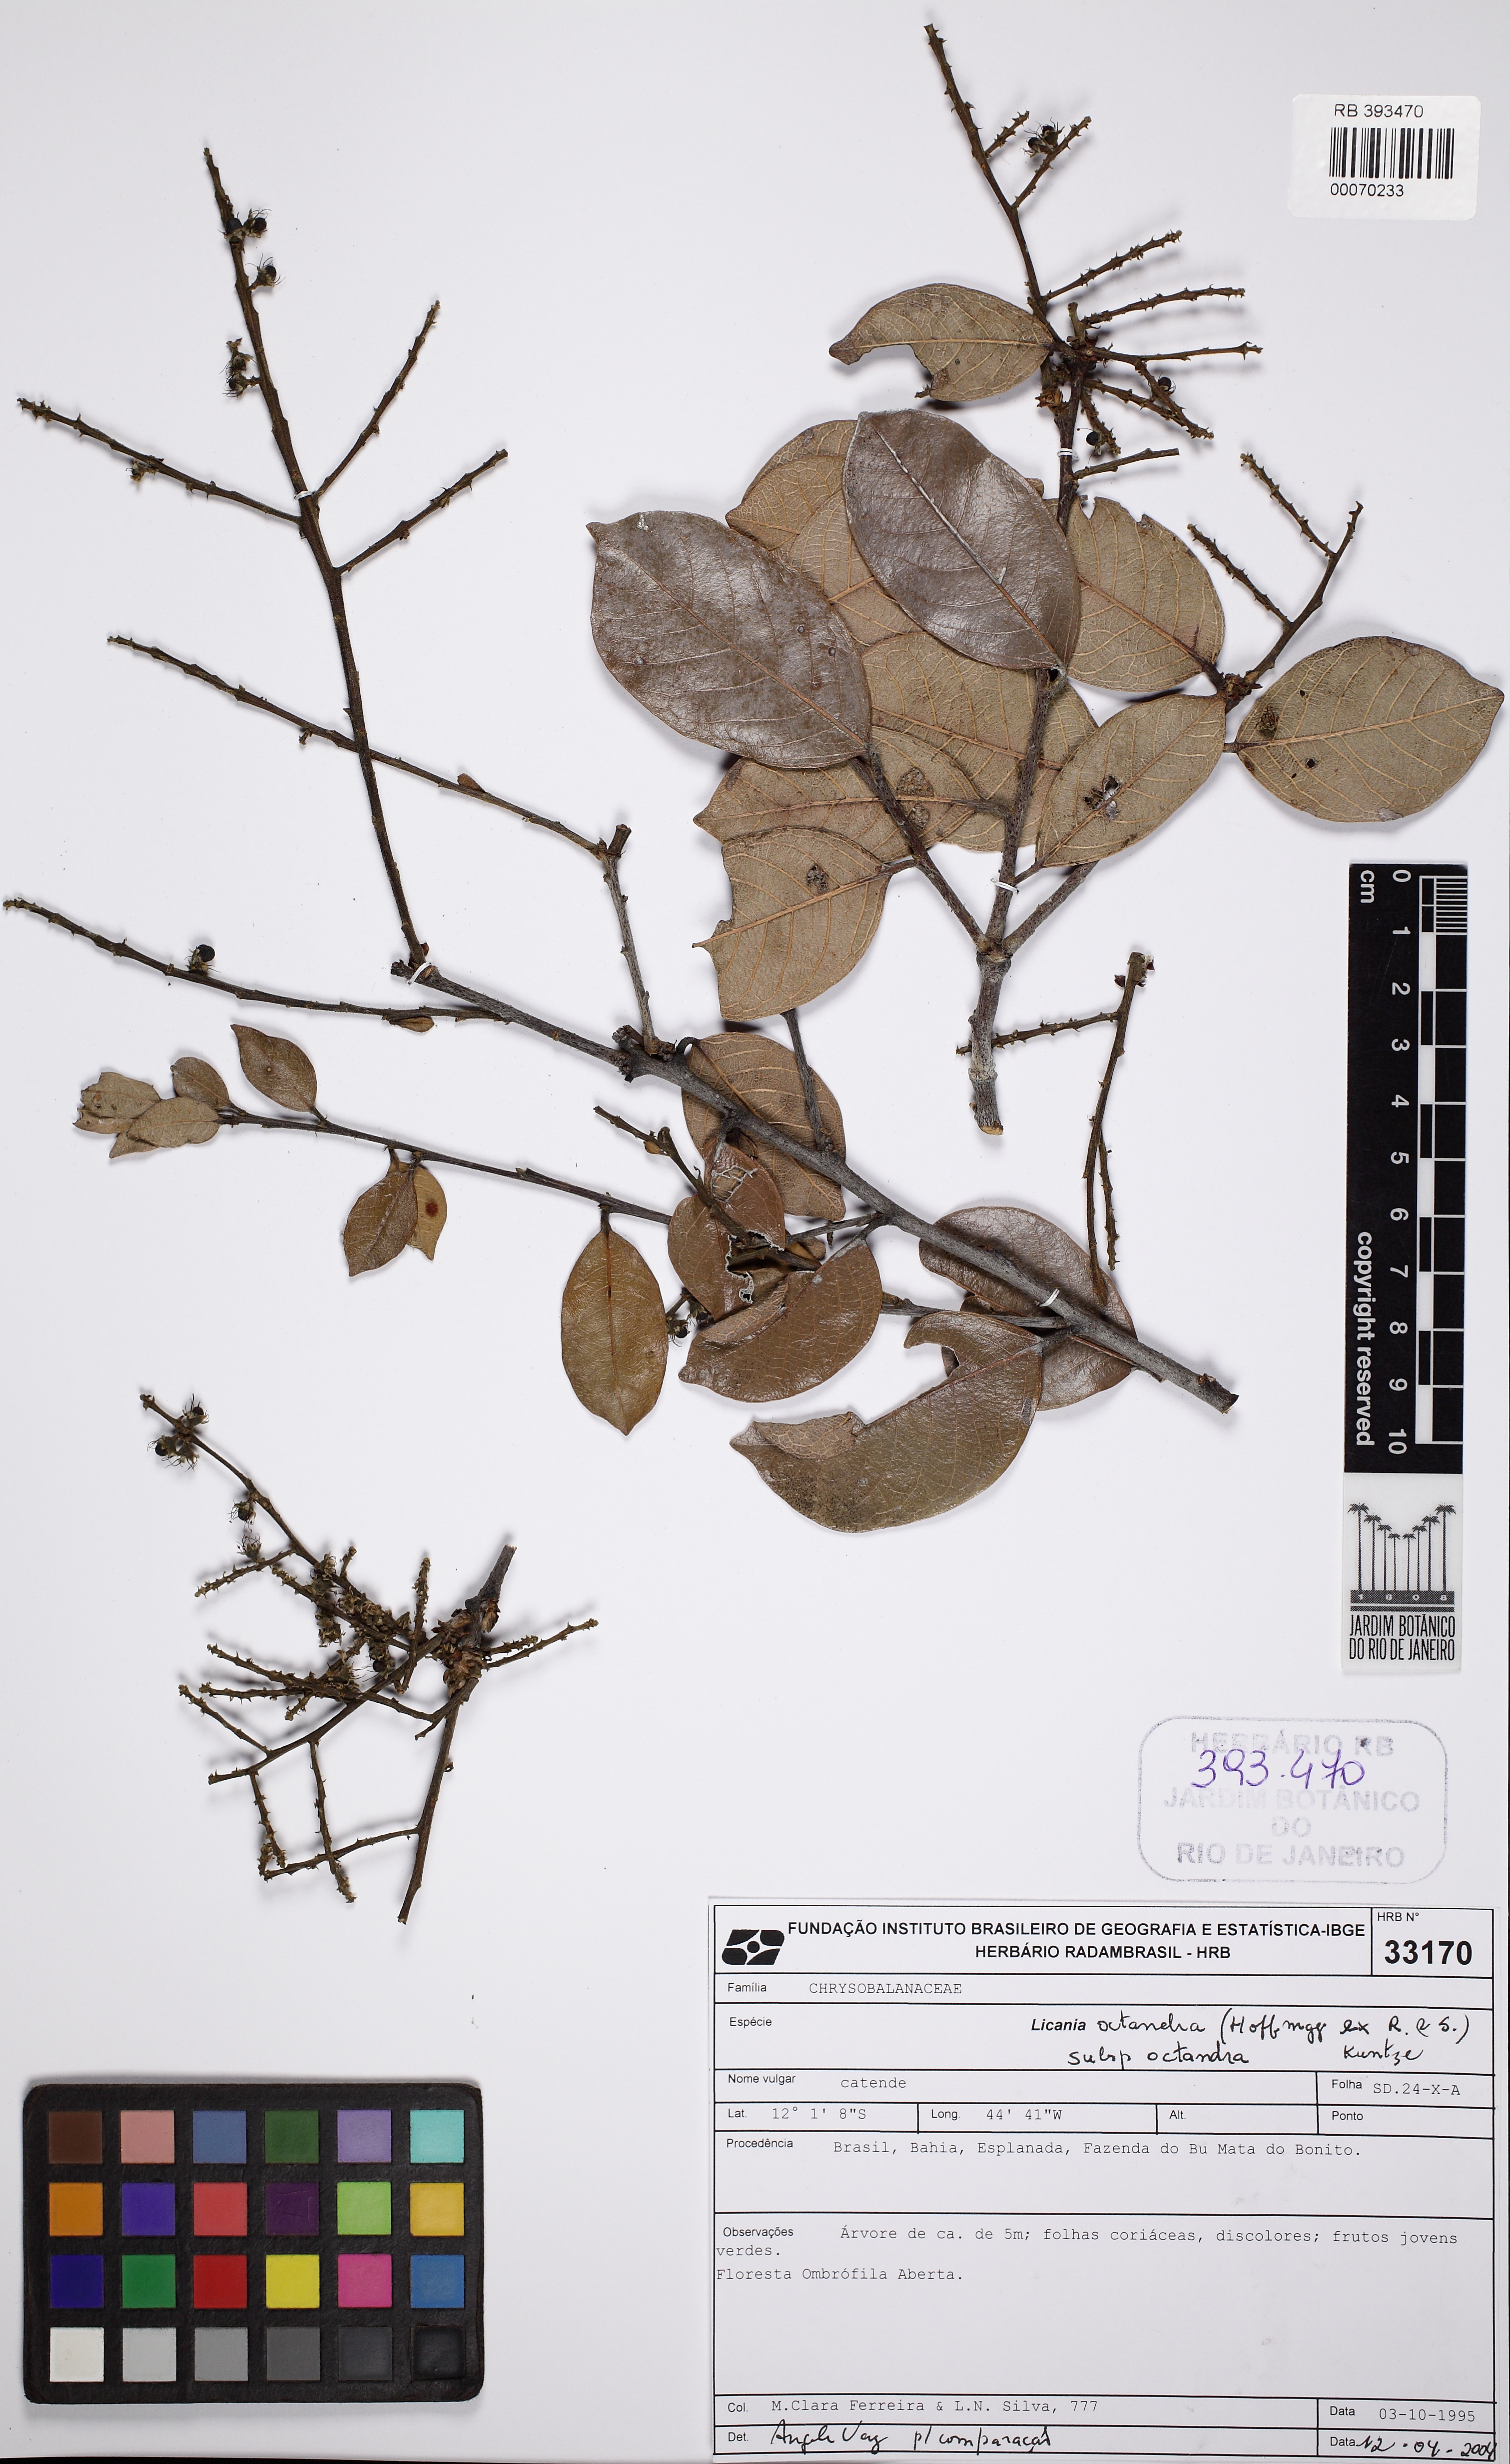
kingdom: Plantae
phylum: Tracheophyta
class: Magnoliopsida
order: Malpighiales
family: Chrysobalanaceae
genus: Leptobalanus
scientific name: Leptobalanus octandrus
